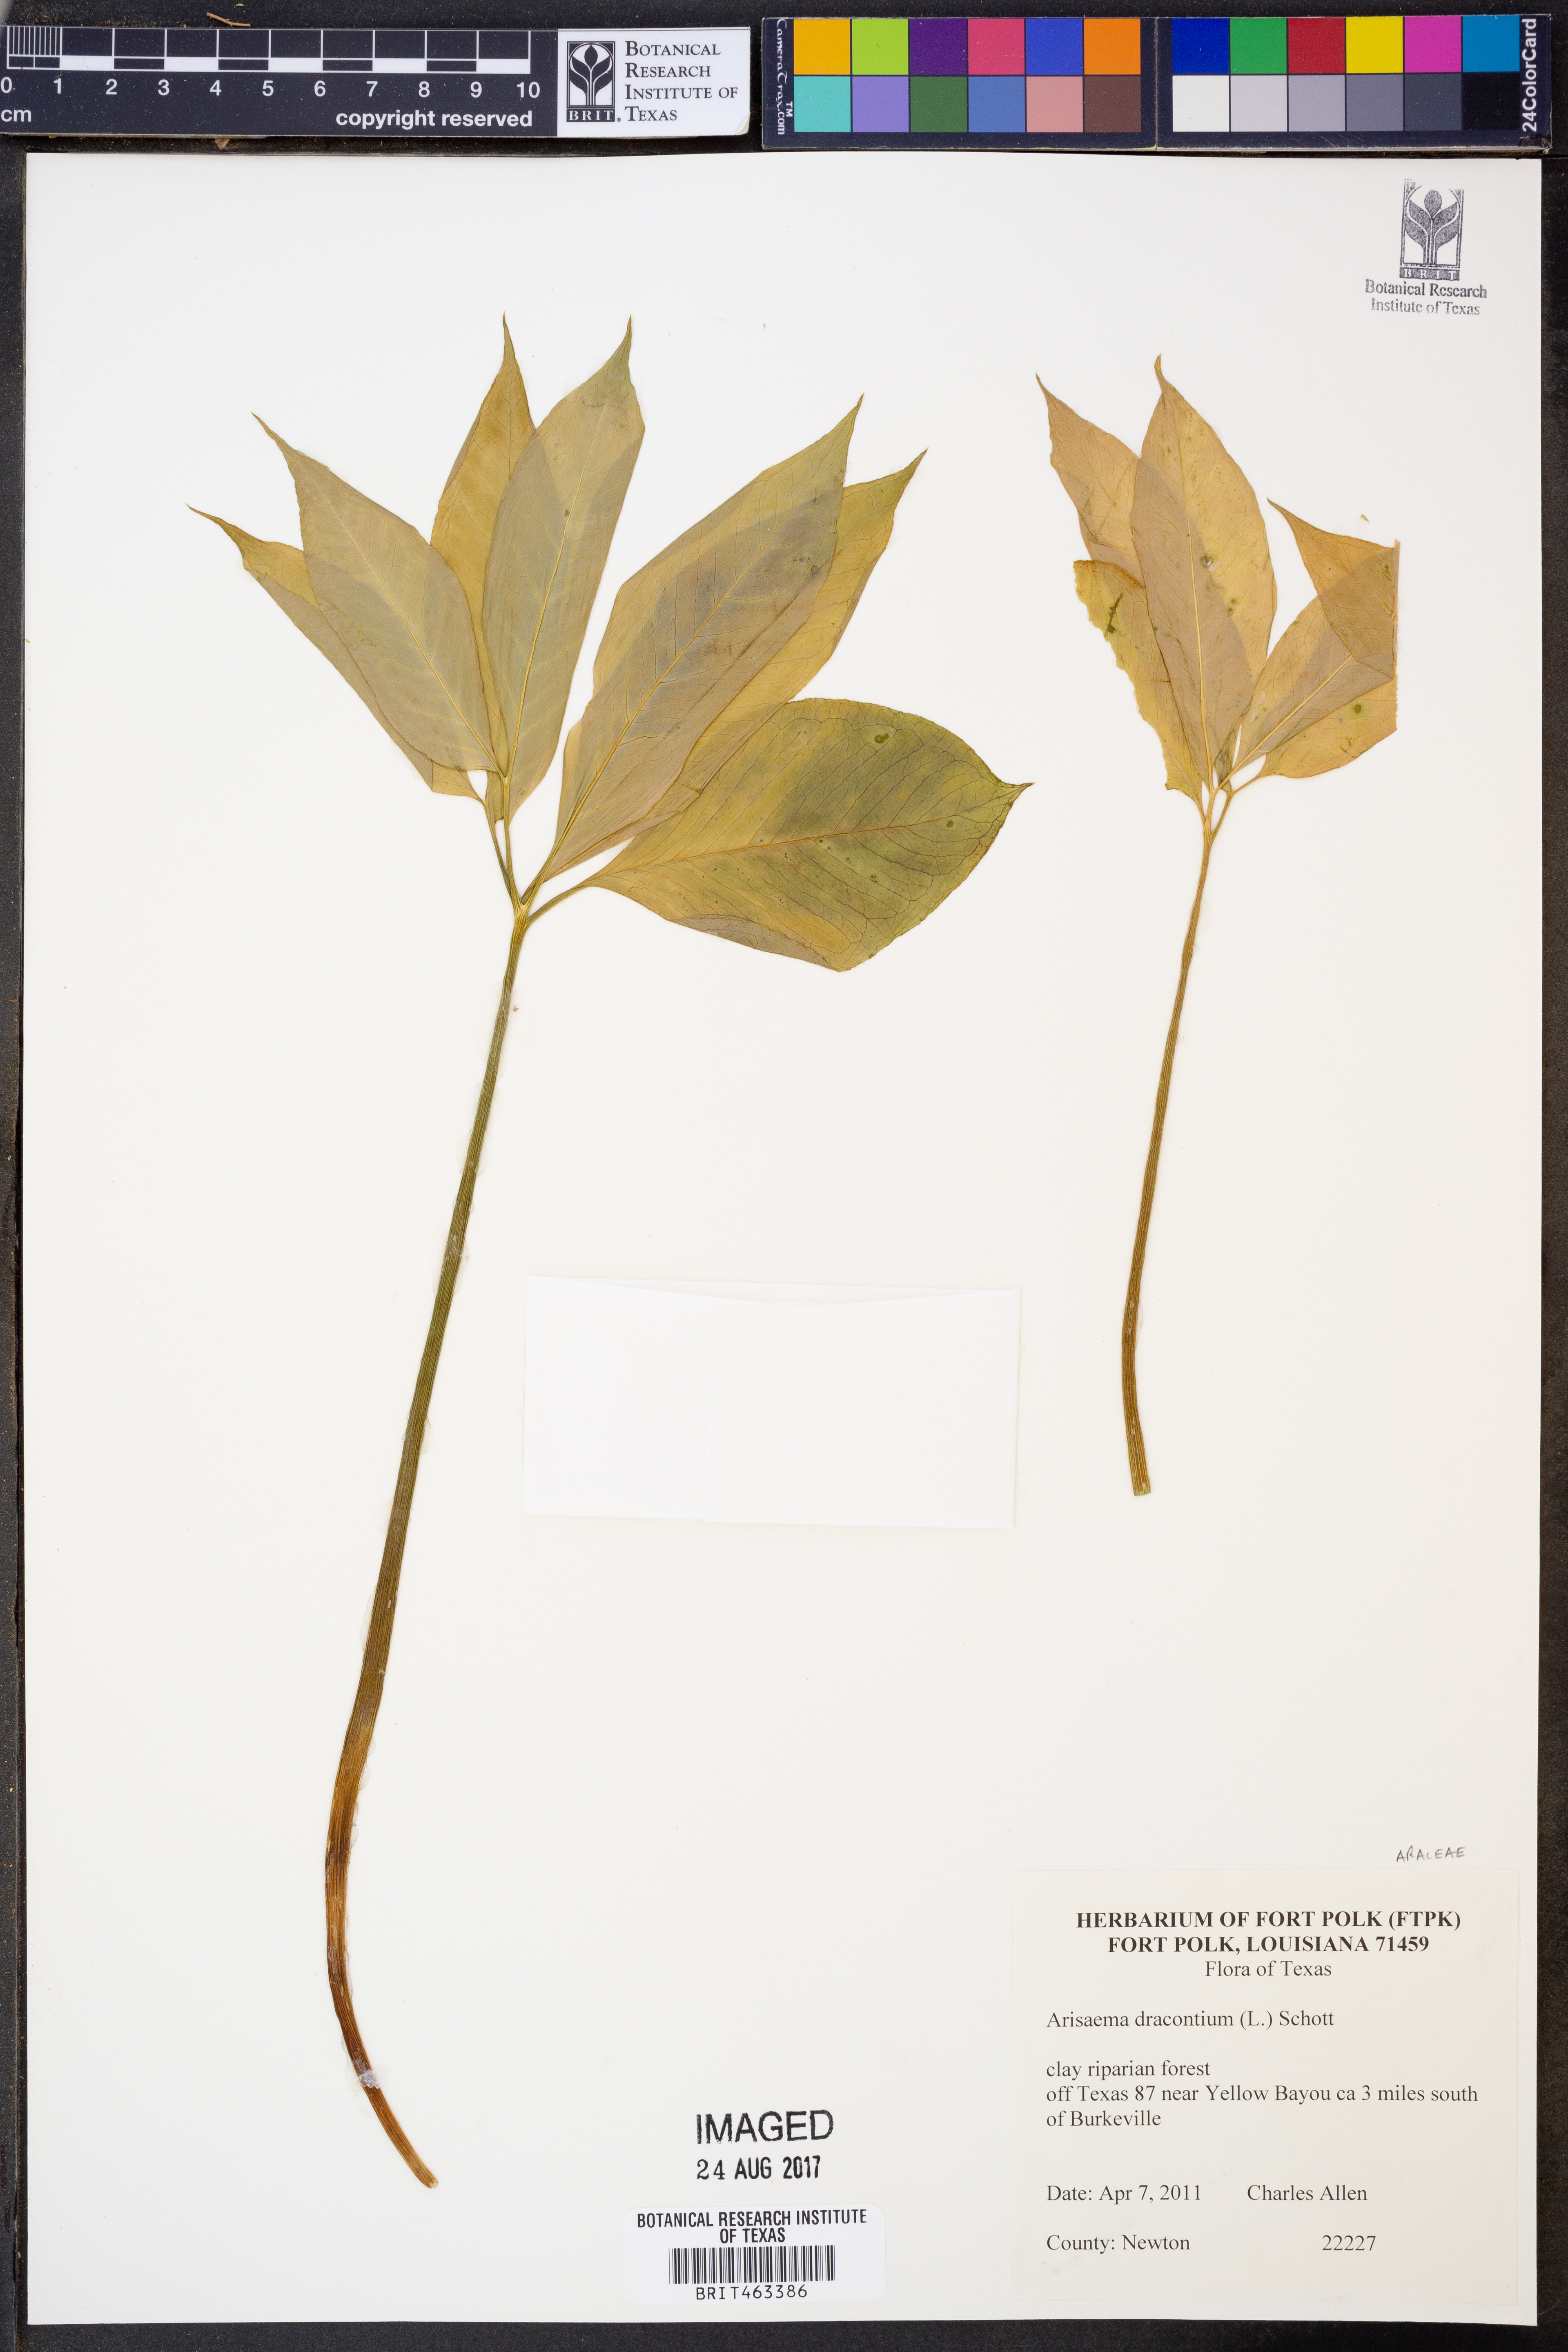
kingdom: Plantae
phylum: Tracheophyta
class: Liliopsida
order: Alismatales
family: Araceae
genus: Arisaema
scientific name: Arisaema dracontium
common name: Dragon-arum
